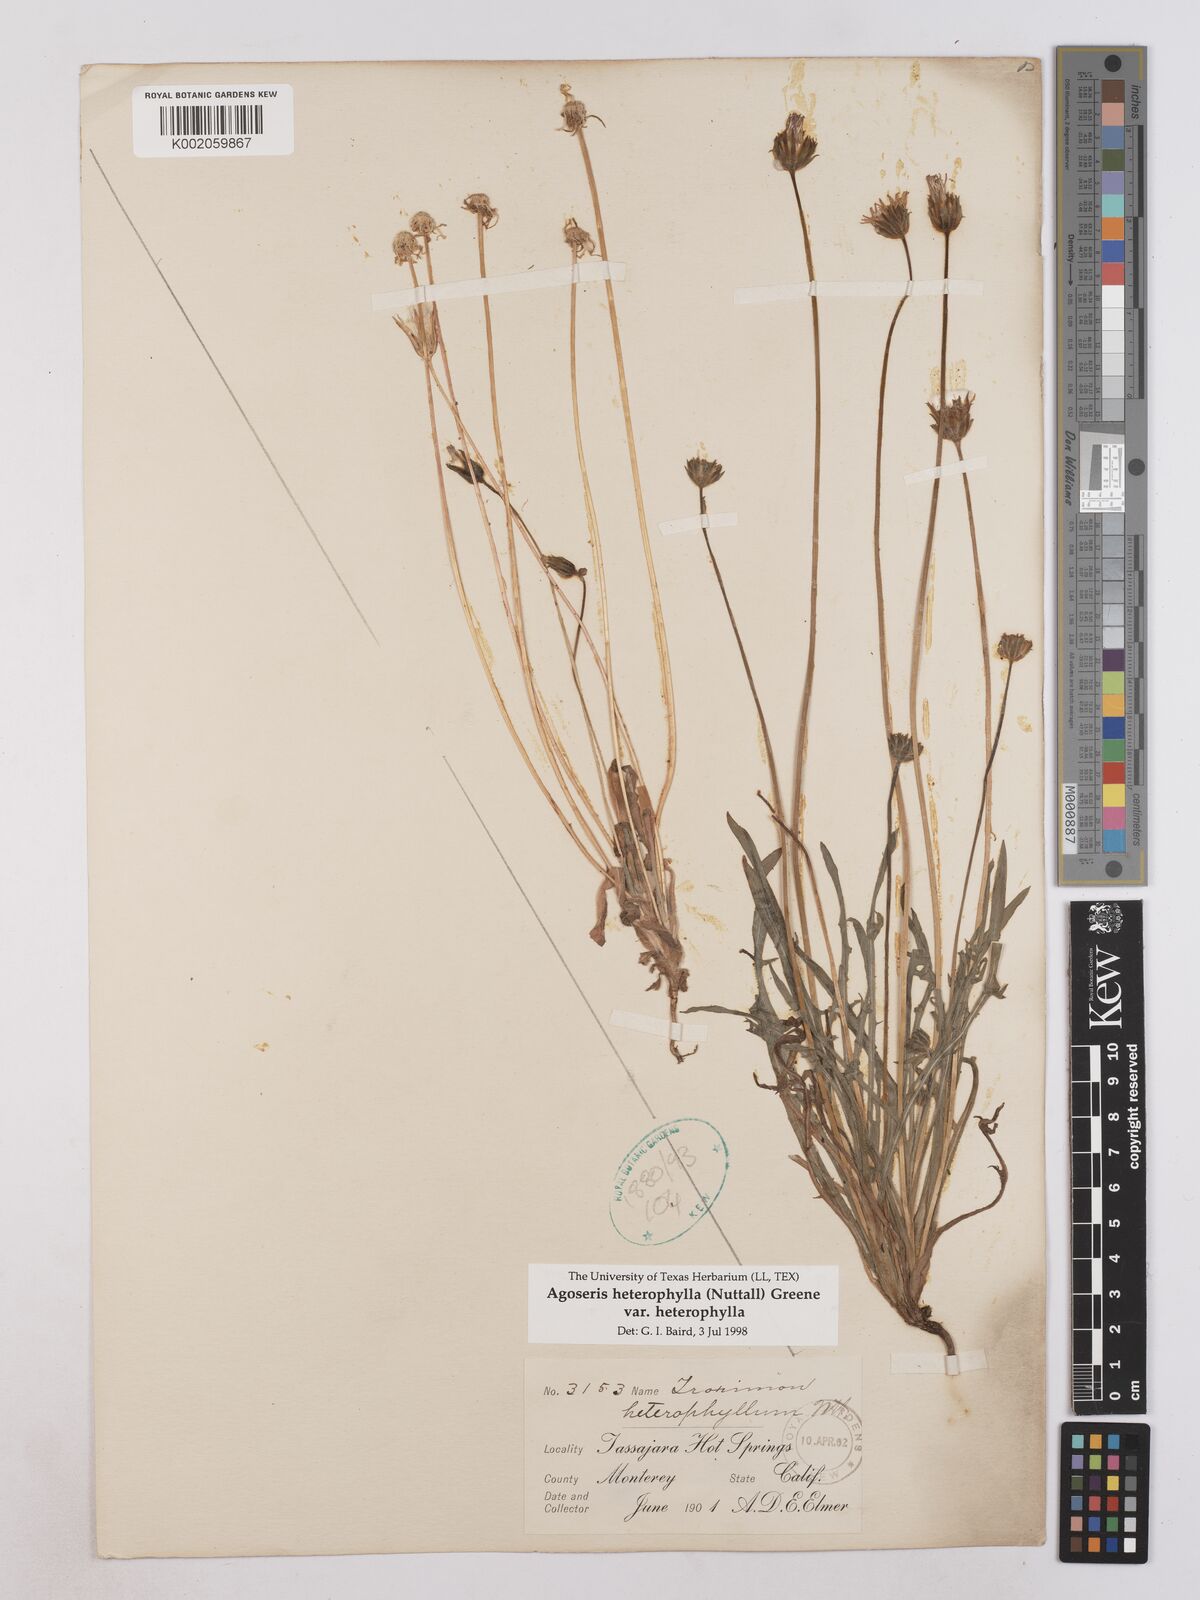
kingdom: Plantae
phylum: Tracheophyta
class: Magnoliopsida
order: Asterales
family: Asteraceae
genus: Agoseris
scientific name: Agoseris heterophylla
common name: Annual agoseris
